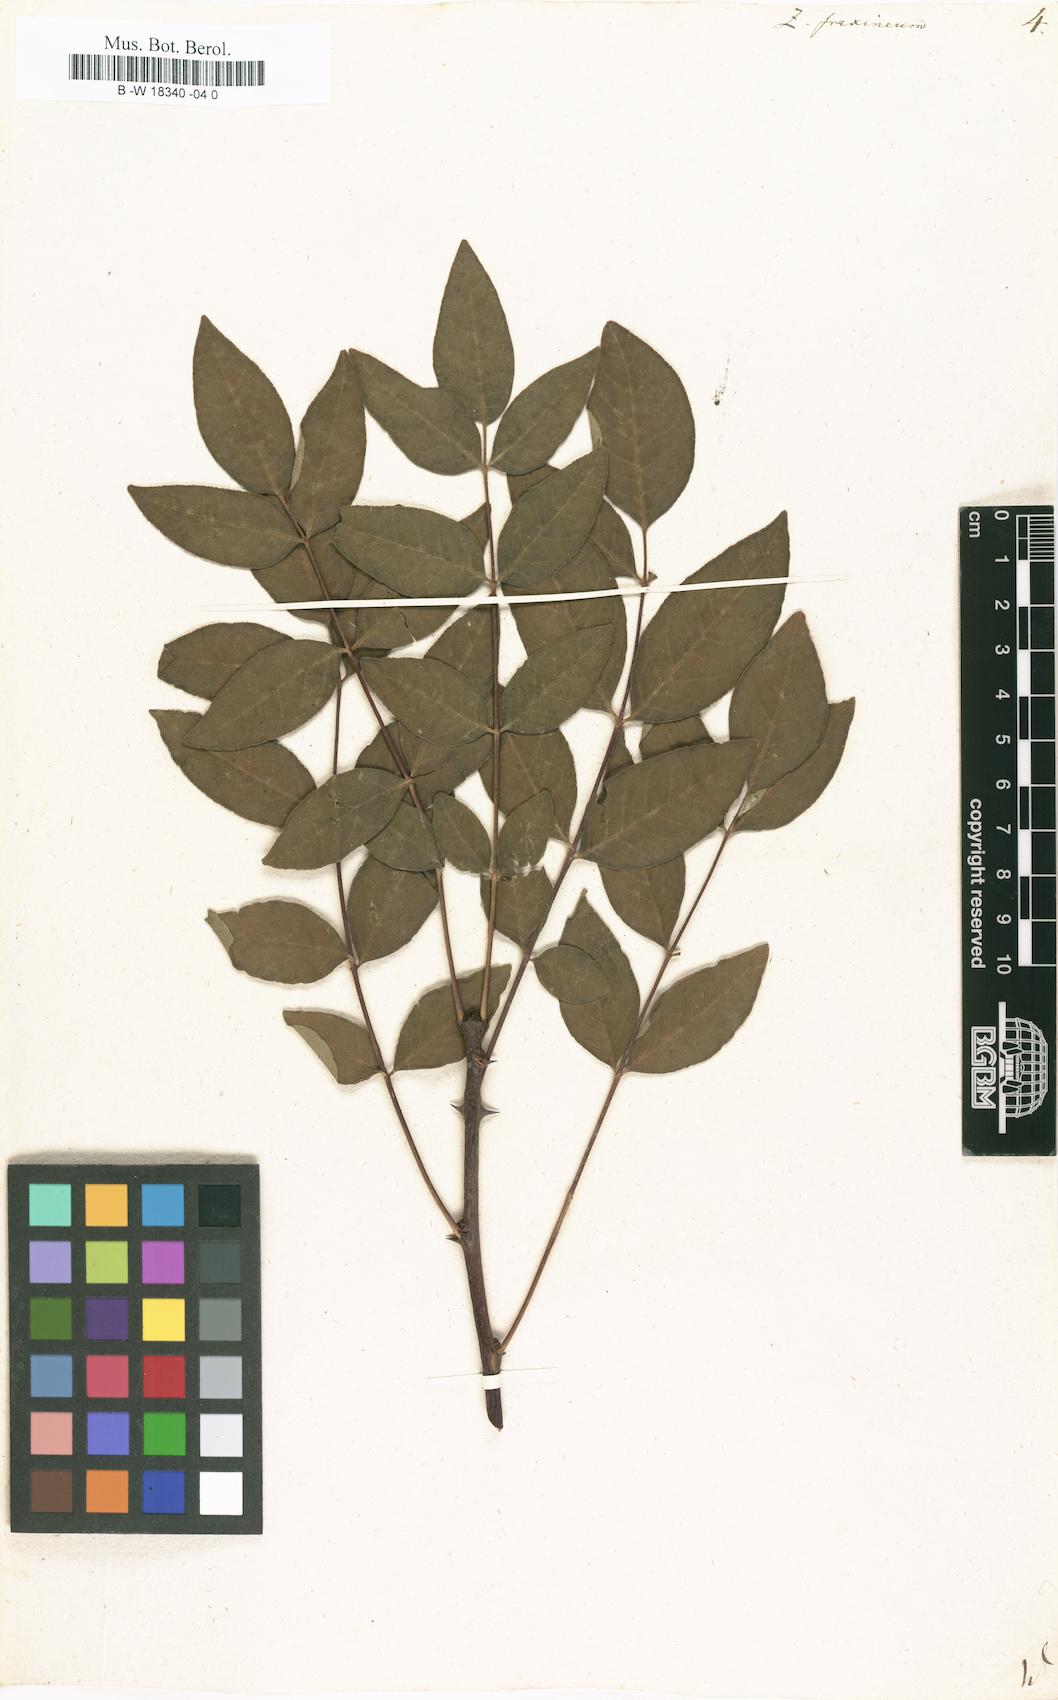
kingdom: Plantae
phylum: Tracheophyta
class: Magnoliopsida
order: Sapindales
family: Rutaceae
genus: Zanthoxylum
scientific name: Zanthoxylum americanum
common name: Northern prickly-ash
